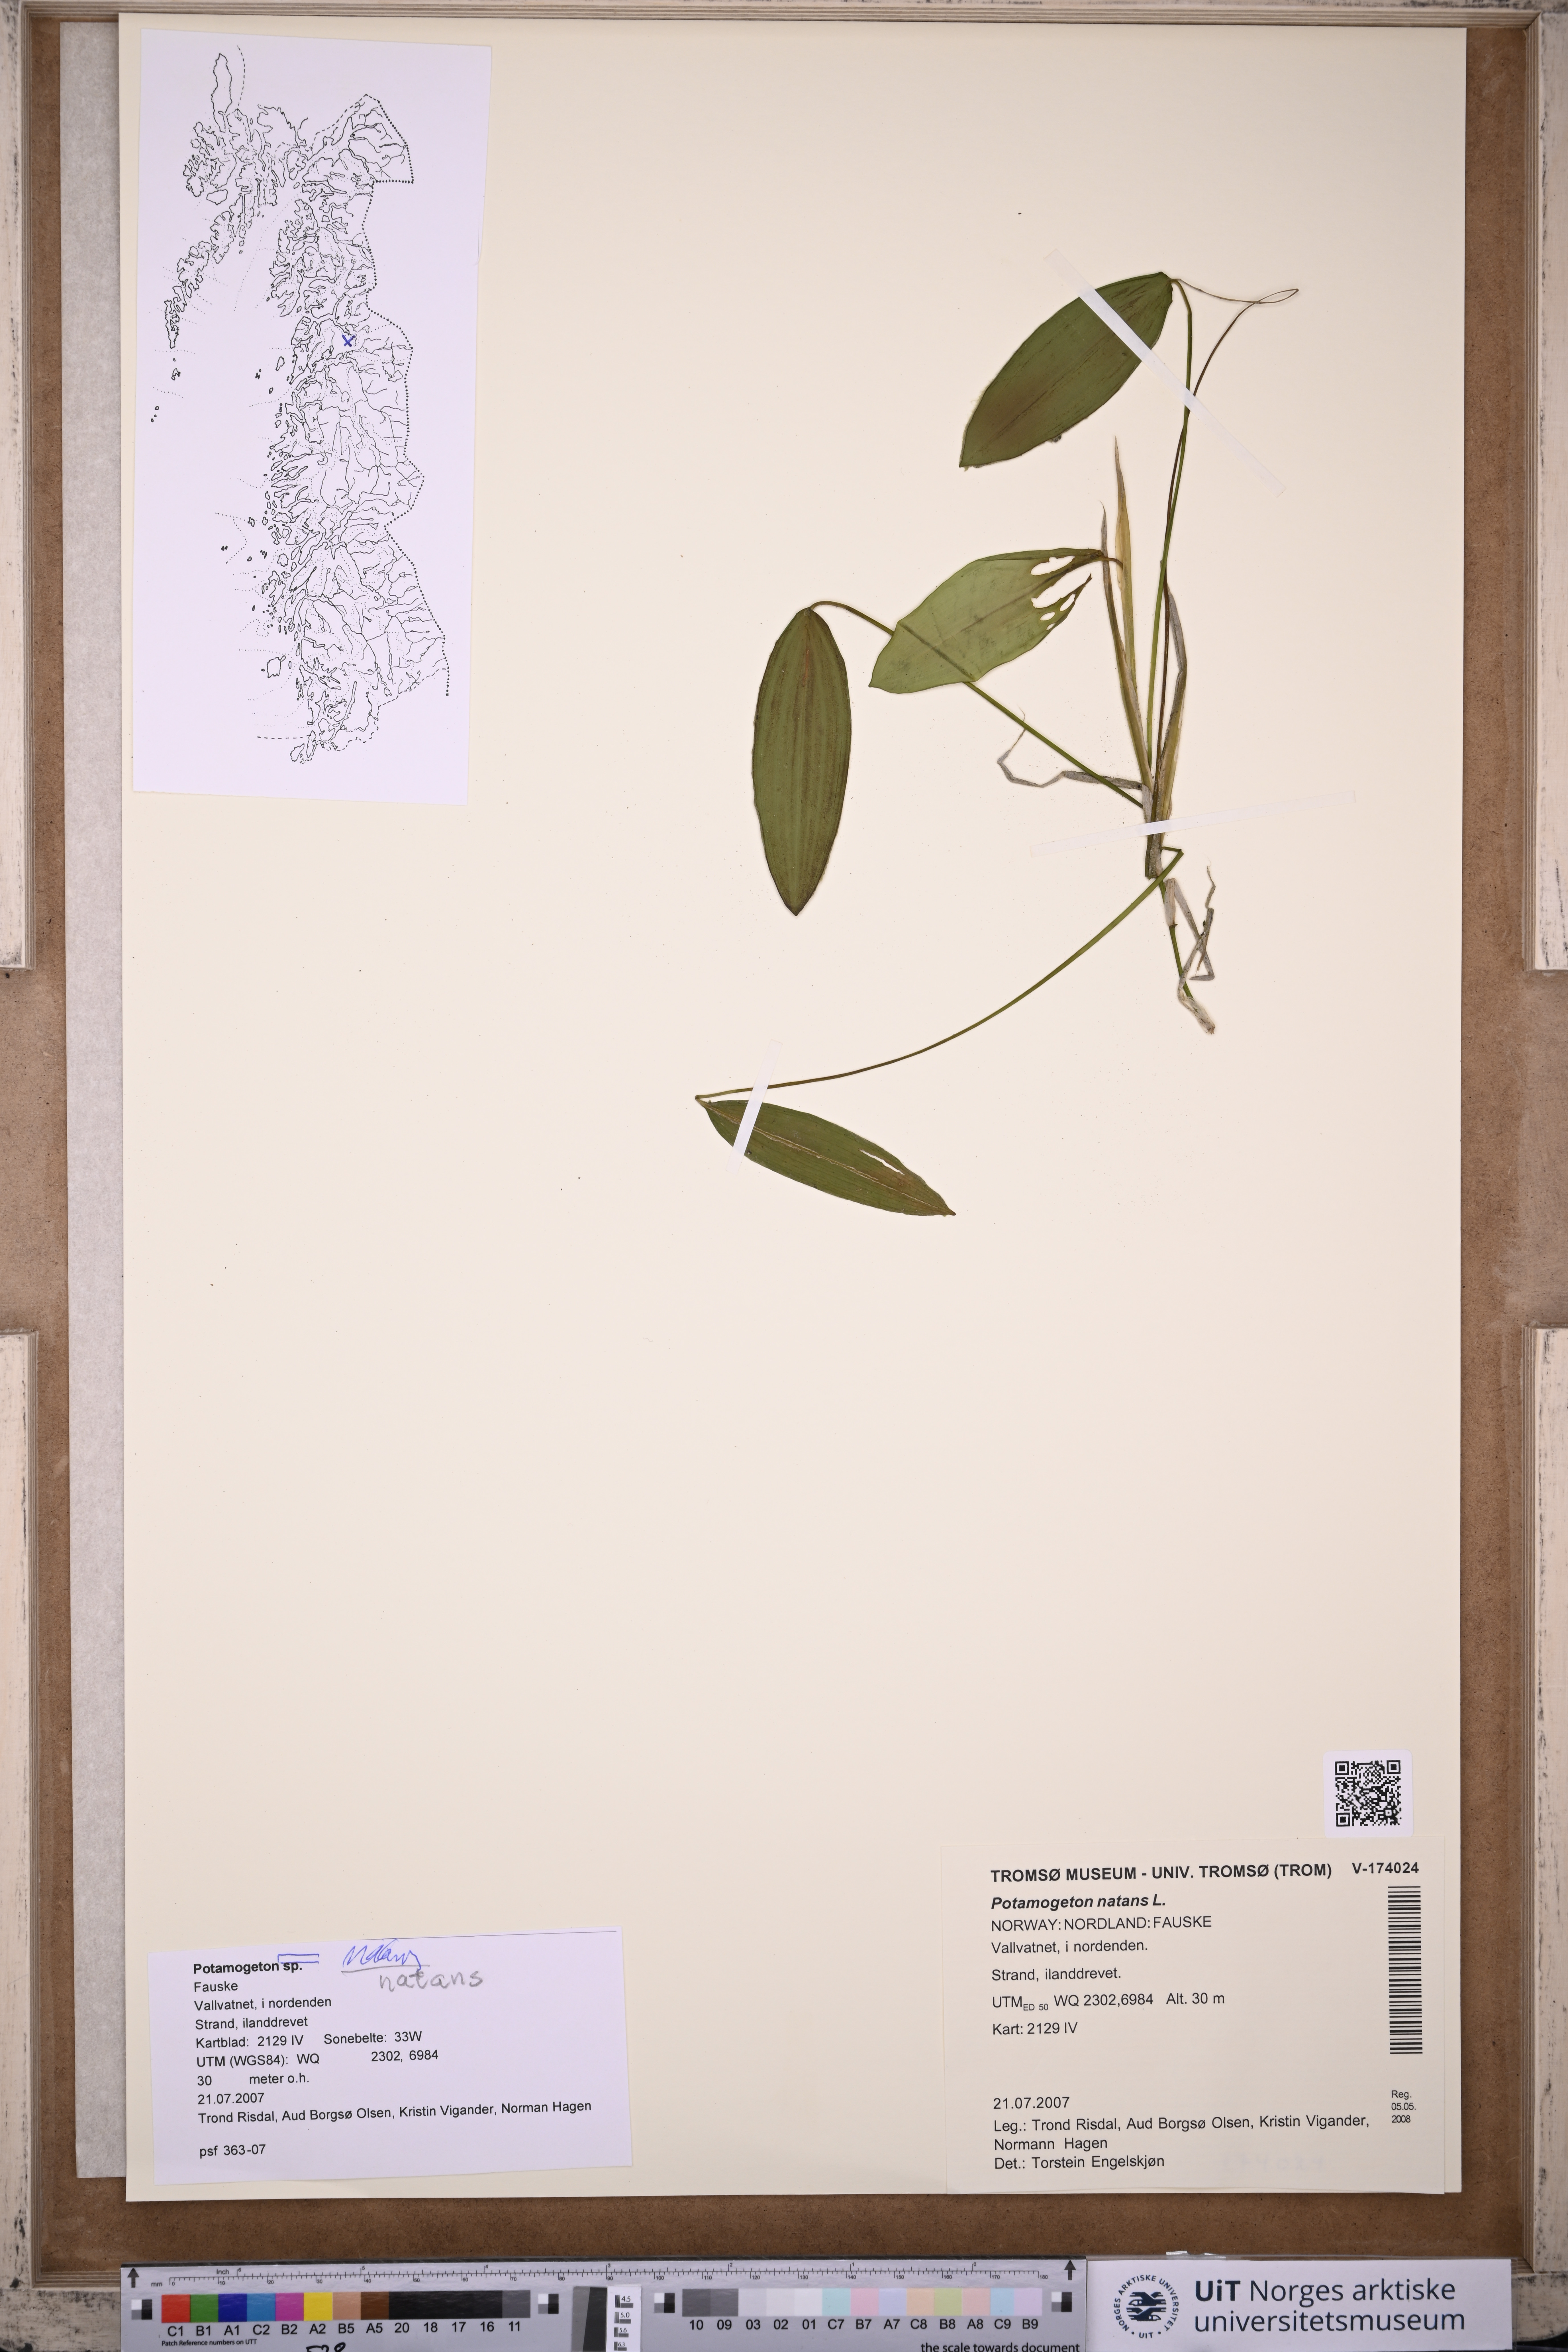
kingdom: Plantae
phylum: Tracheophyta
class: Liliopsida
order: Alismatales
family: Potamogetonaceae
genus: Potamogeton
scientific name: Potamogeton natans
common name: Broad-leaved pondweed
